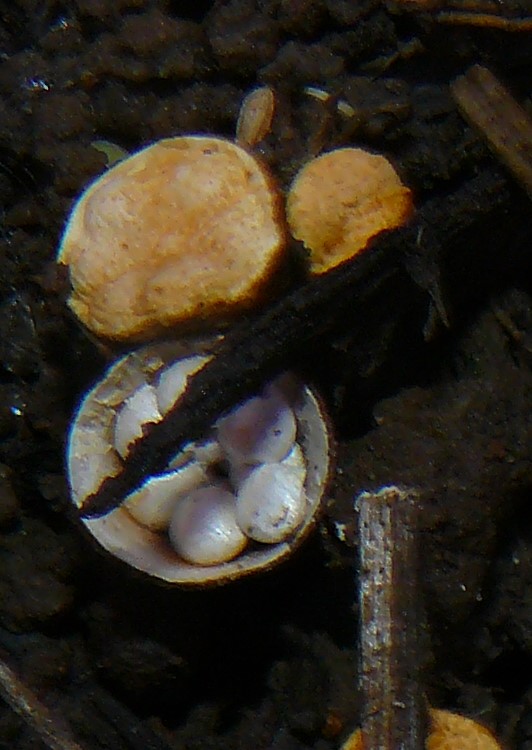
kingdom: Fungi
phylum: Basidiomycota
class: Agaricomycetes
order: Agaricales
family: Nidulariaceae
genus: Crucibulum
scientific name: Crucibulum crucibuliforme
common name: krukkesvamp
